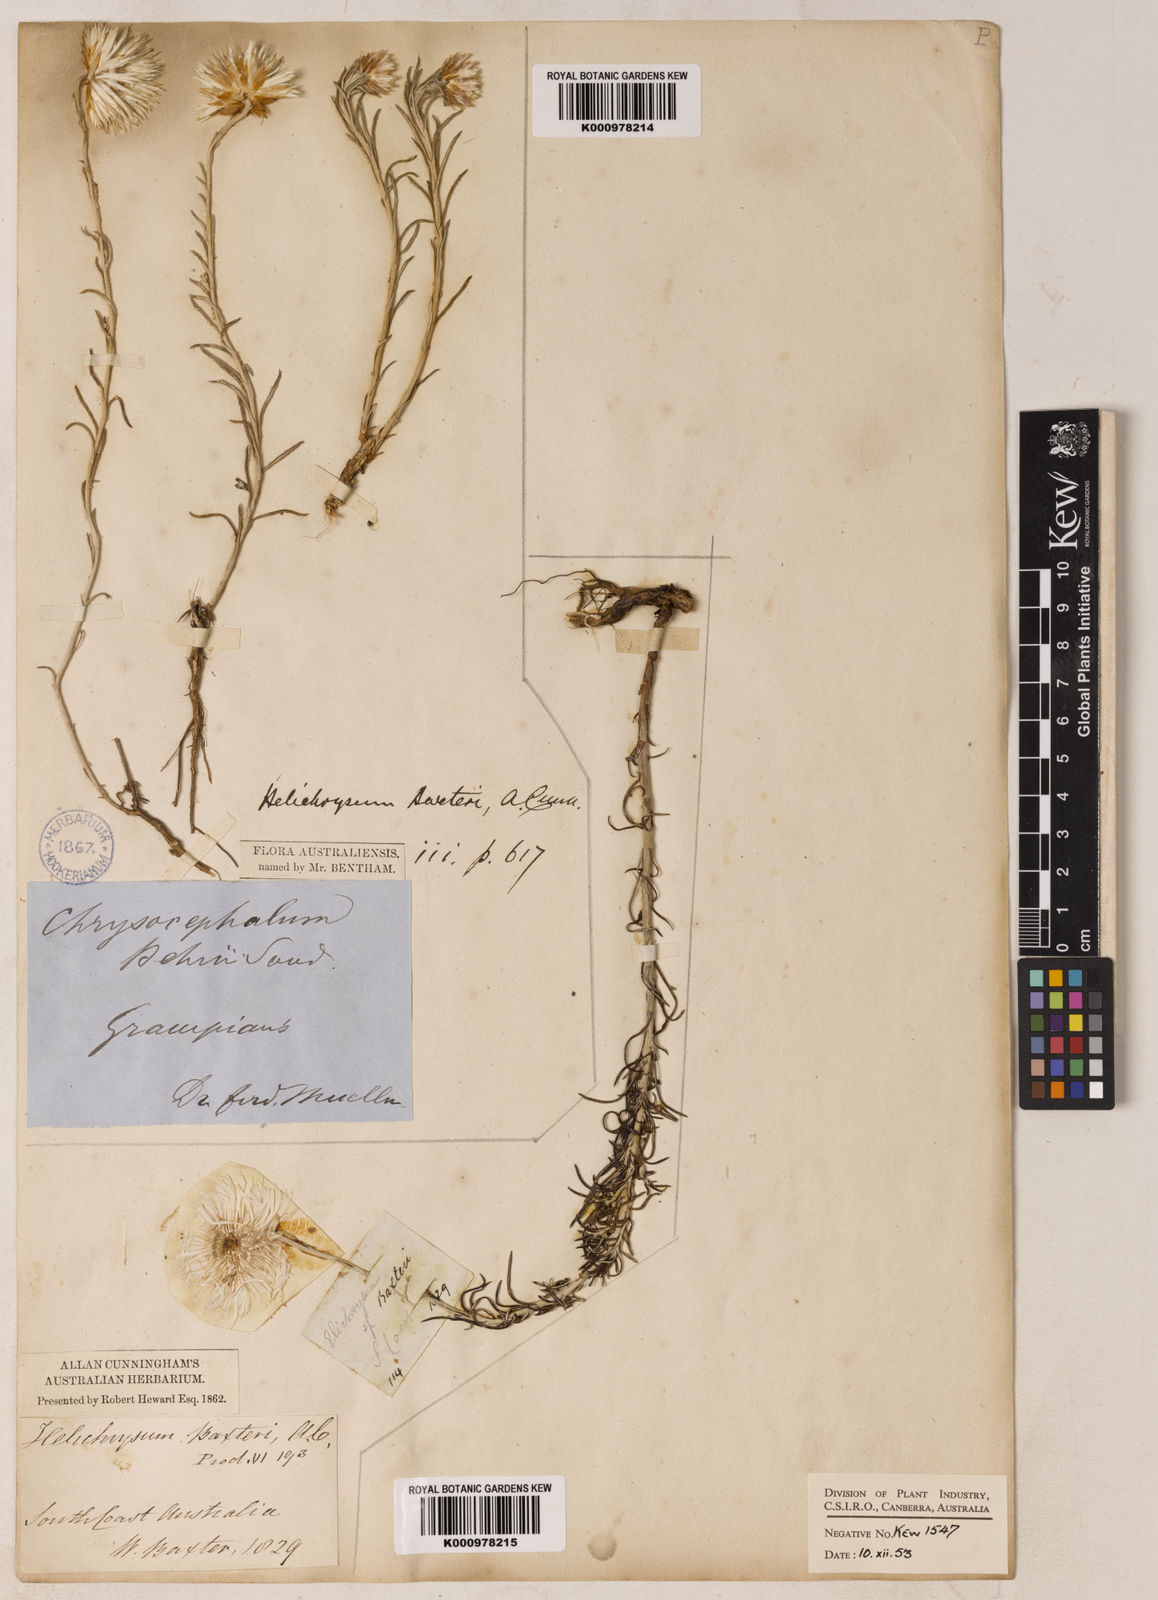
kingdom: Plantae
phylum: Tracheophyta
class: Magnoliopsida
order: Asterales
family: Asteraceae
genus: Chrysocephalum
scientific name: Chrysocephalum baxteri
